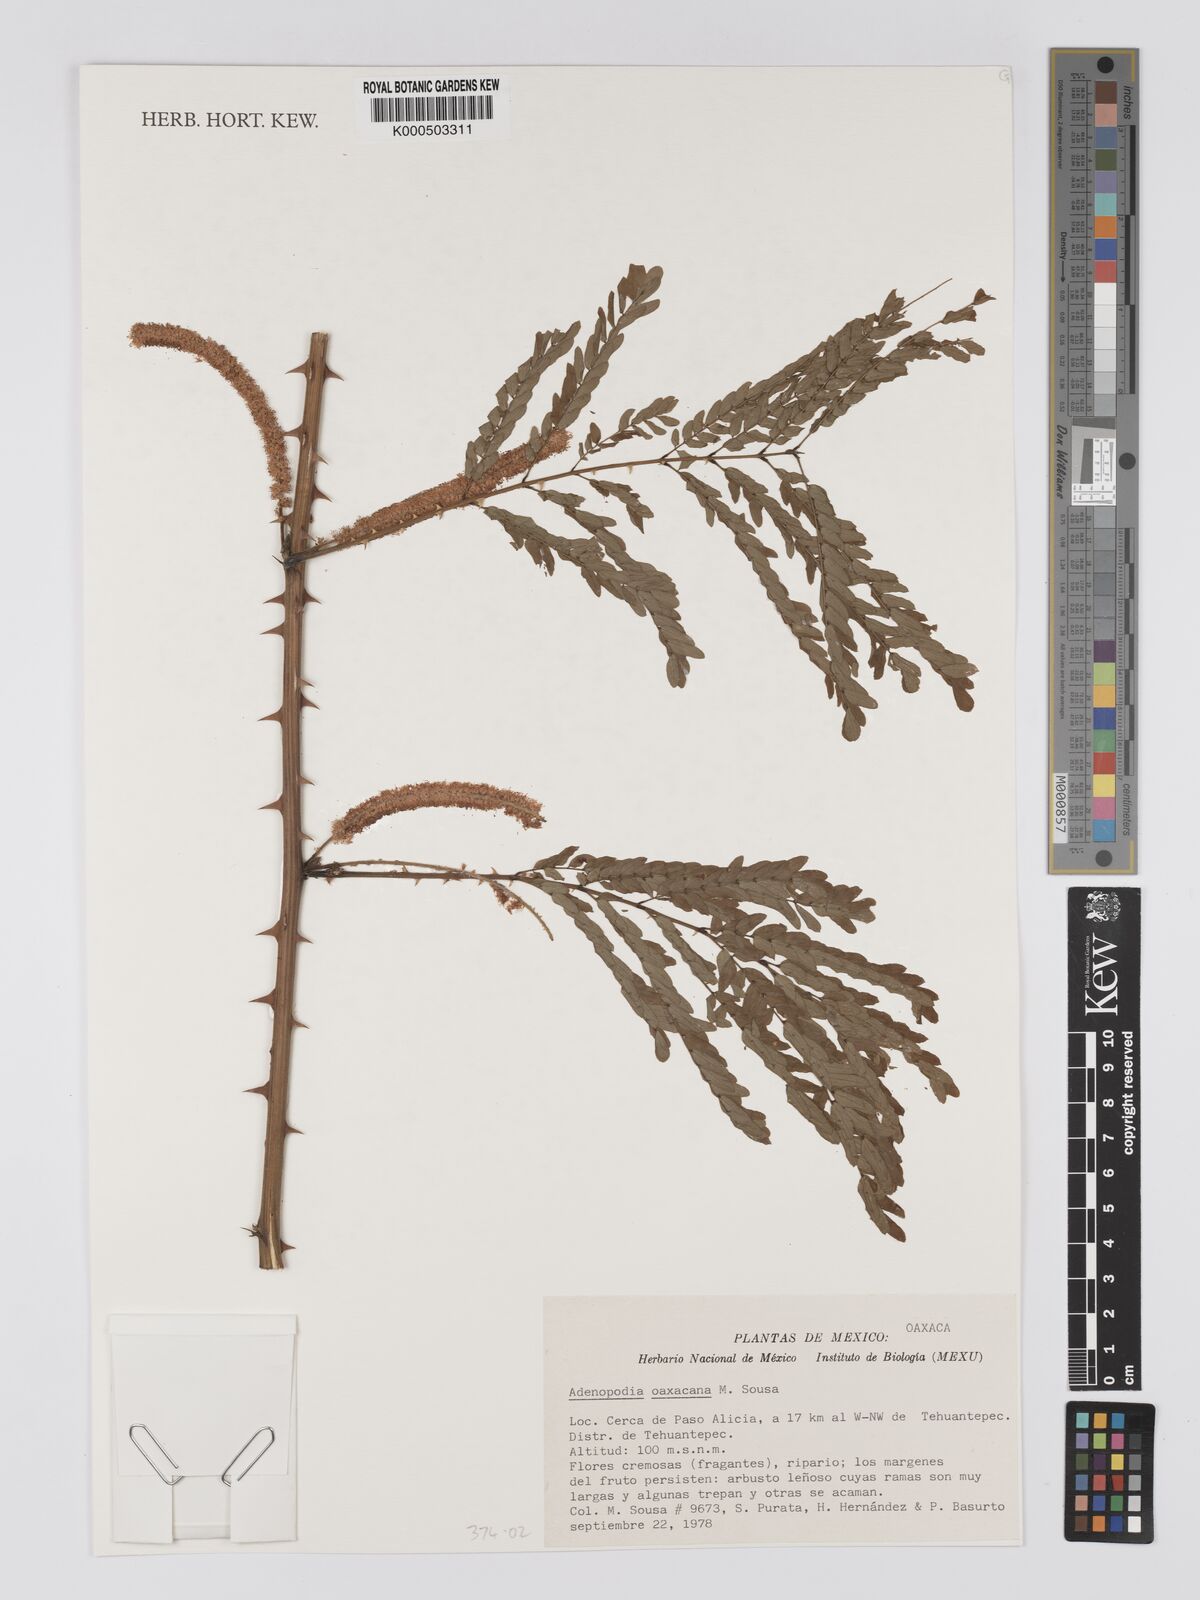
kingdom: Plantae
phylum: Tracheophyta
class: Magnoliopsida
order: Fabales
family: Fabaceae
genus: Adenopodia
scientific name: Adenopodia oaxacana
